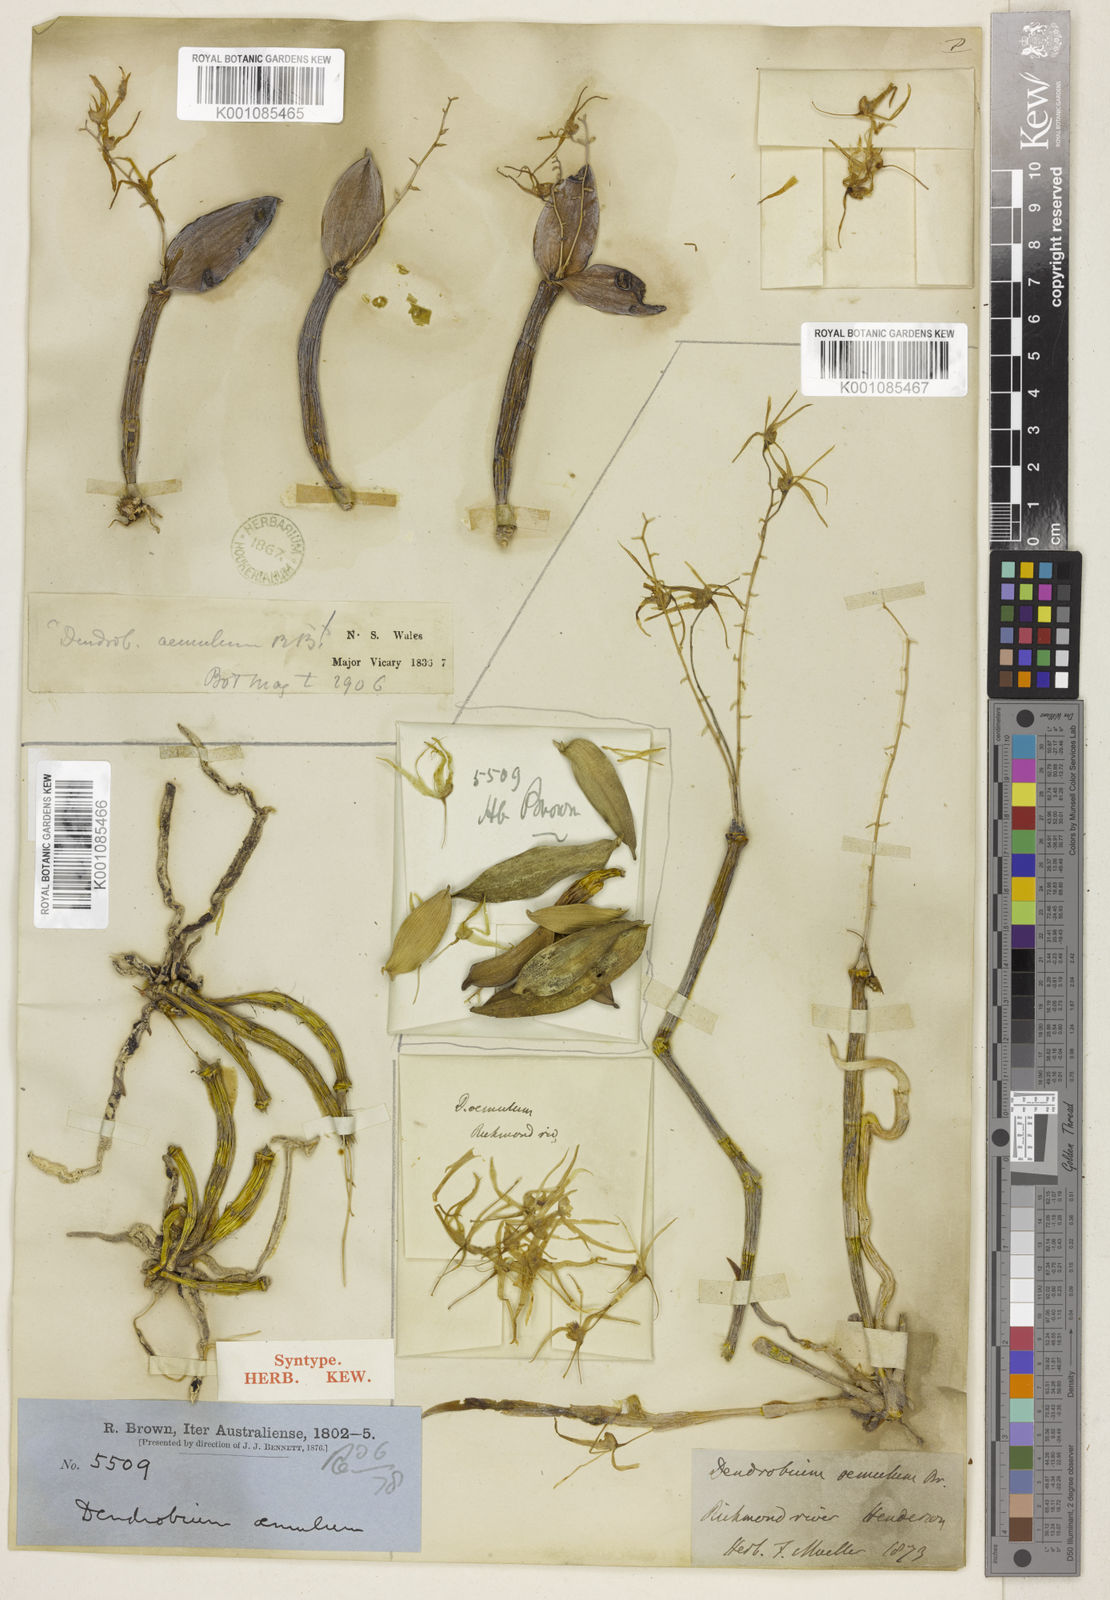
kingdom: Plantae
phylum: Tracheophyta
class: Liliopsida
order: Asparagales
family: Orchidaceae
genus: Dendrobium
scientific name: Dendrobium aemulum
